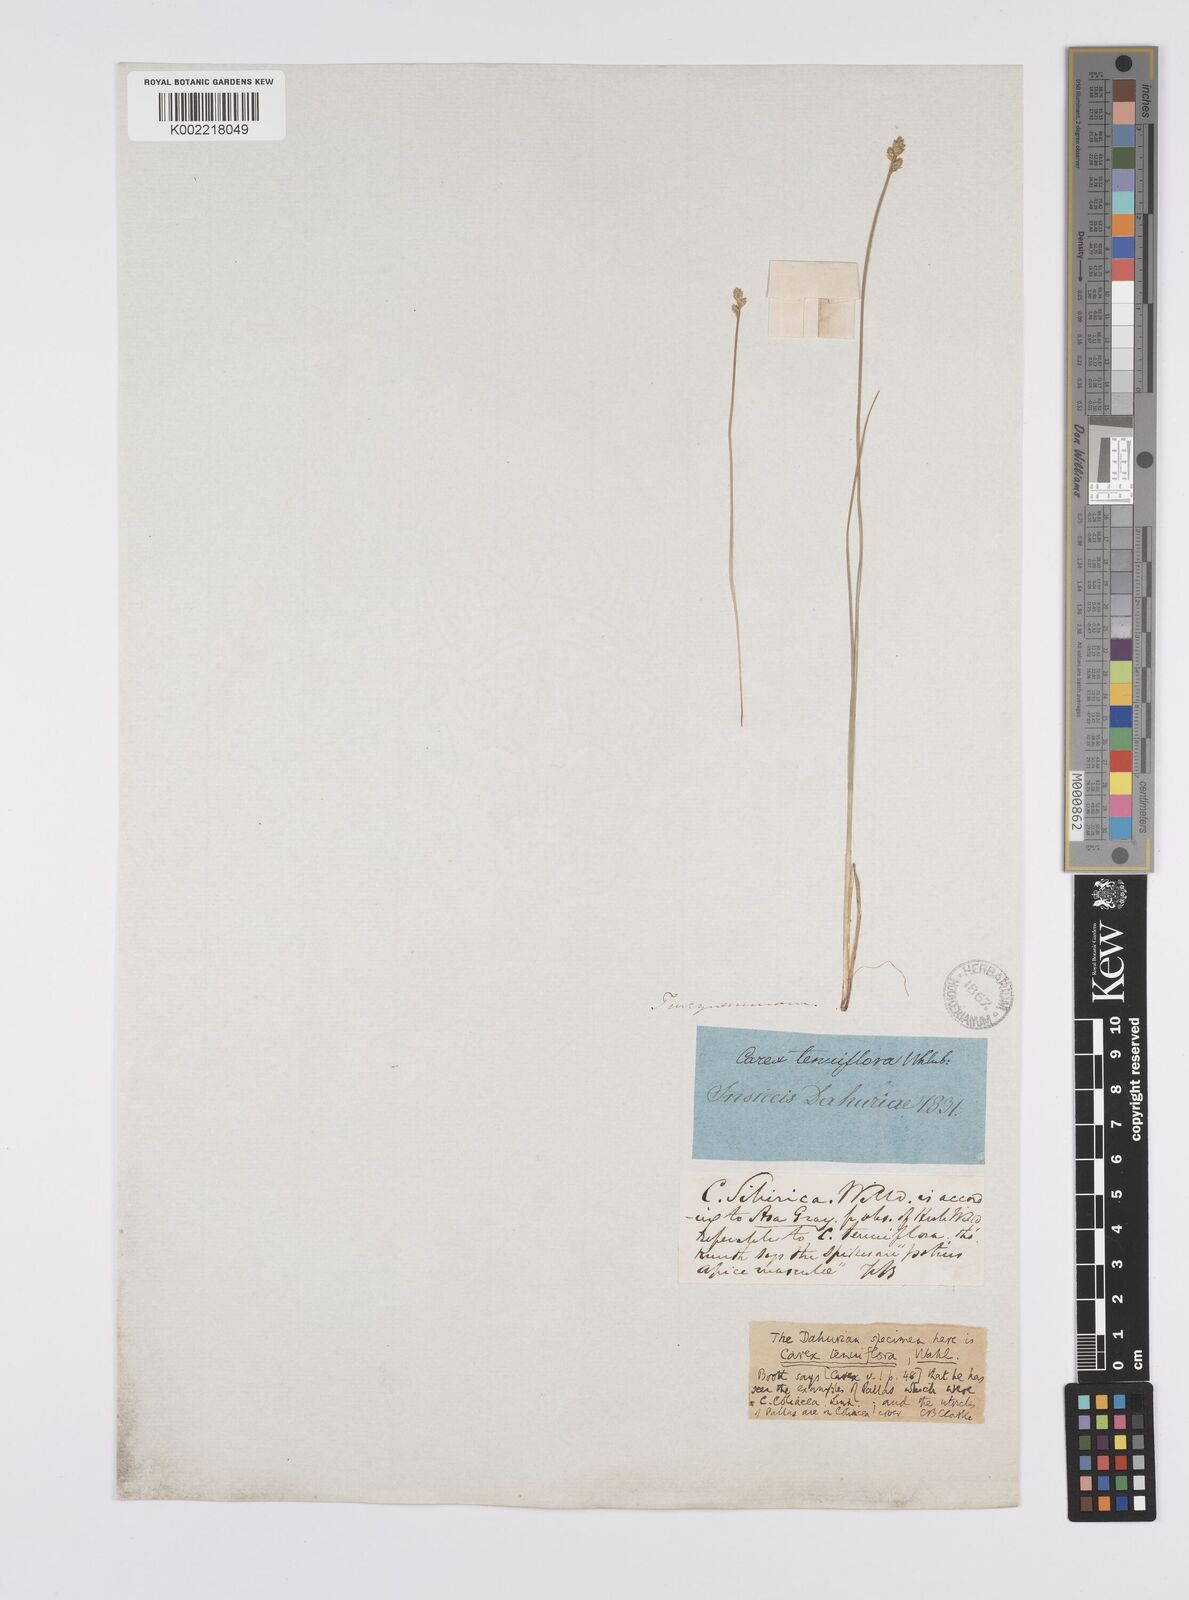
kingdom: Plantae
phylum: Tracheophyta
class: Liliopsida
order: Poales
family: Cyperaceae
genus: Carex
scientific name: Carex tenuiflora
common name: Sparse-flowered sedge
